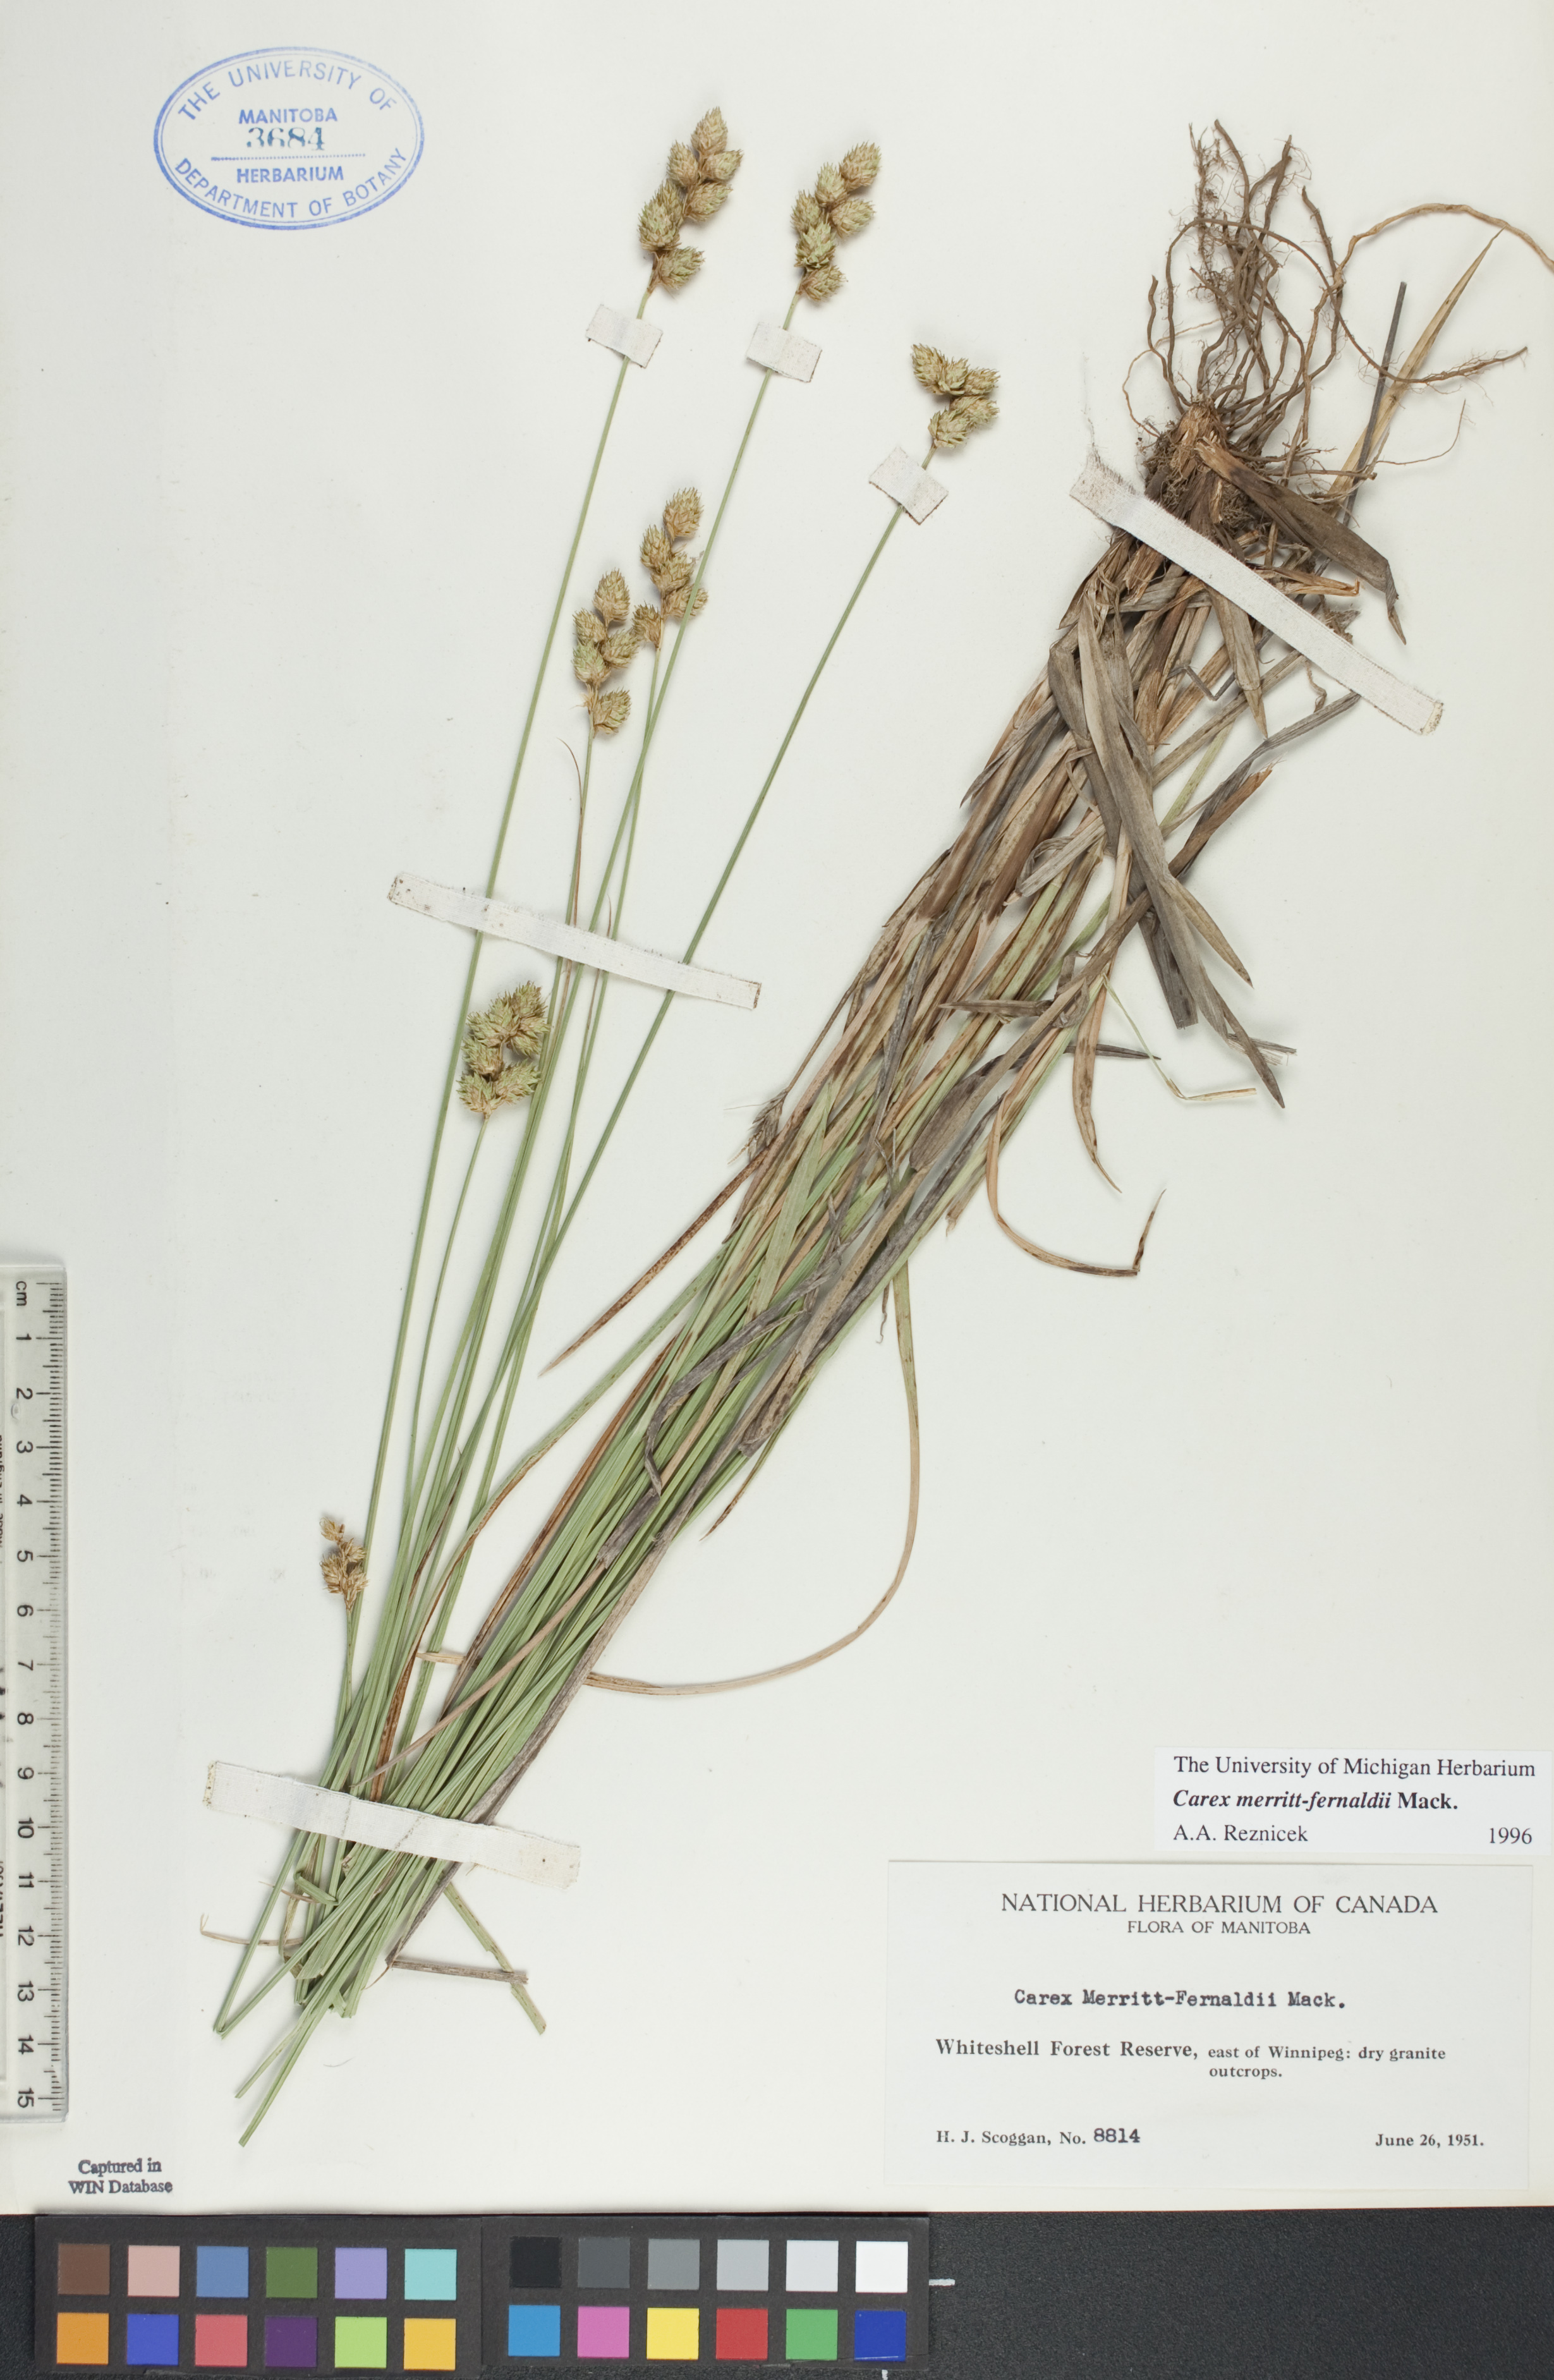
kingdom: Plantae
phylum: Tracheophyta
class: Liliopsida
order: Poales
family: Cyperaceae
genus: Carex
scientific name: Carex merritt-fernaldii
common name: Fernald's oval sedge
